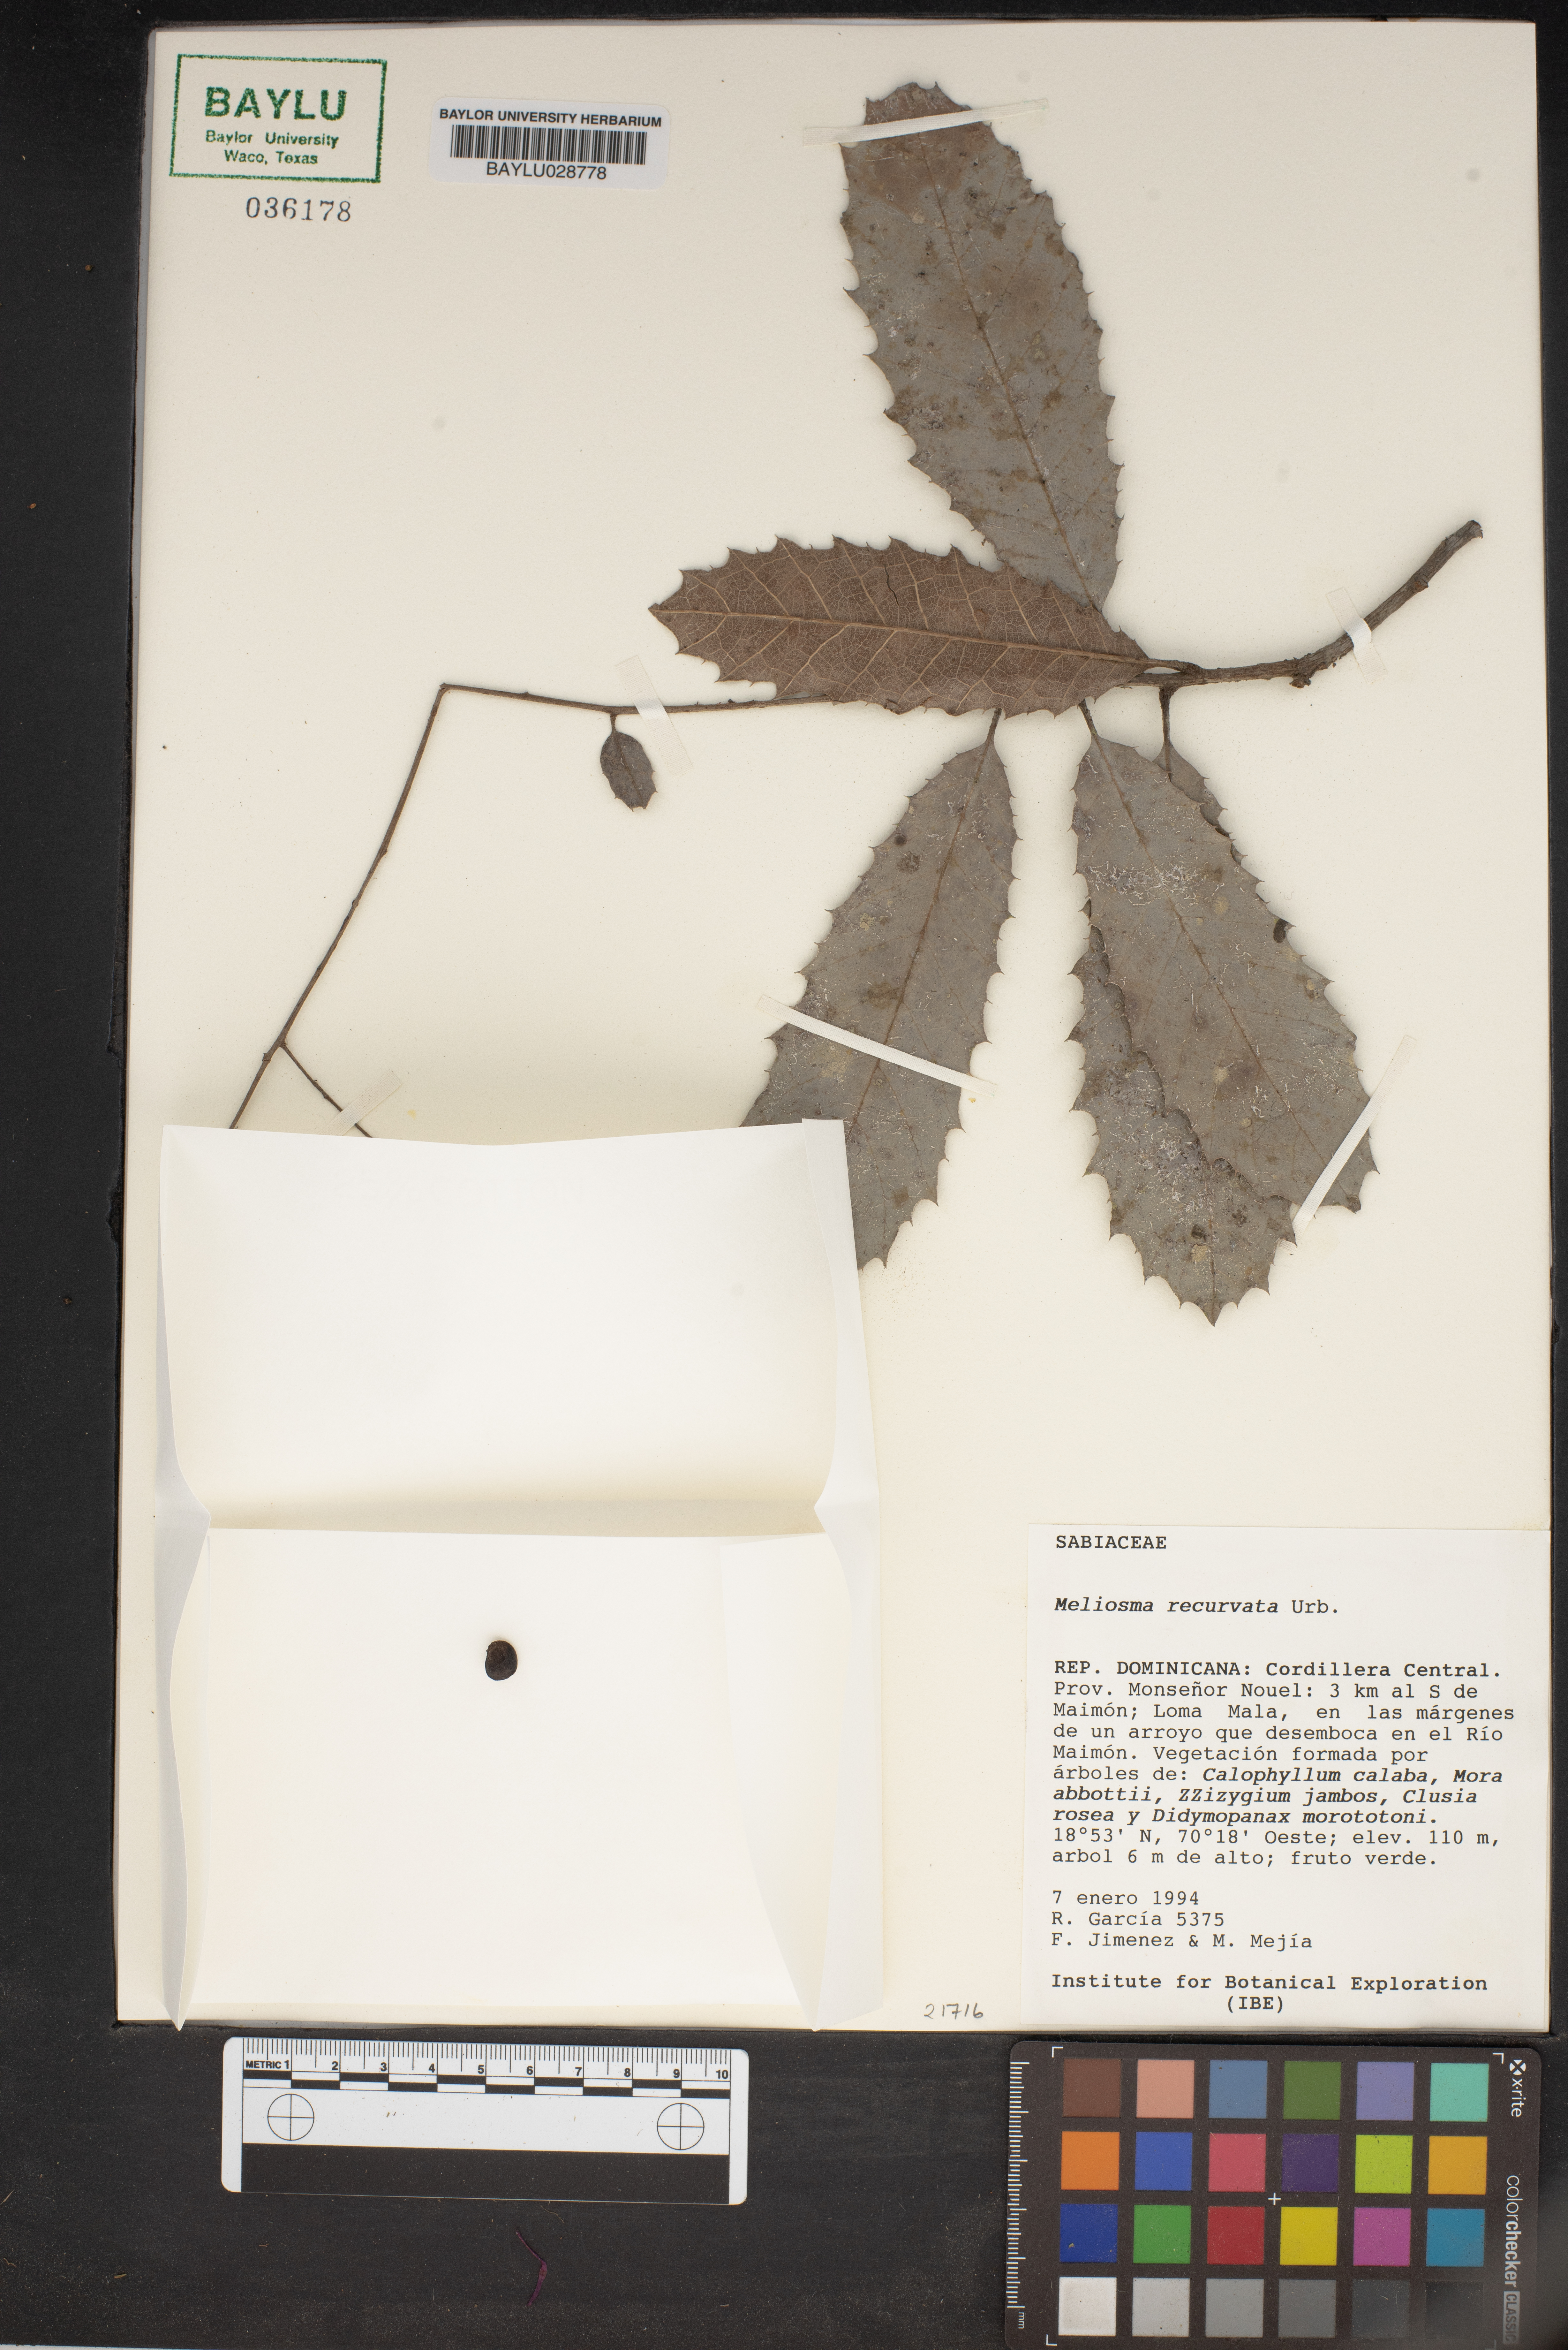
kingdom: Plantae
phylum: Tracheophyta
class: Magnoliopsida
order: Proteales
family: Sabiaceae
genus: Meliosma
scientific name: Meliosma recurvata
